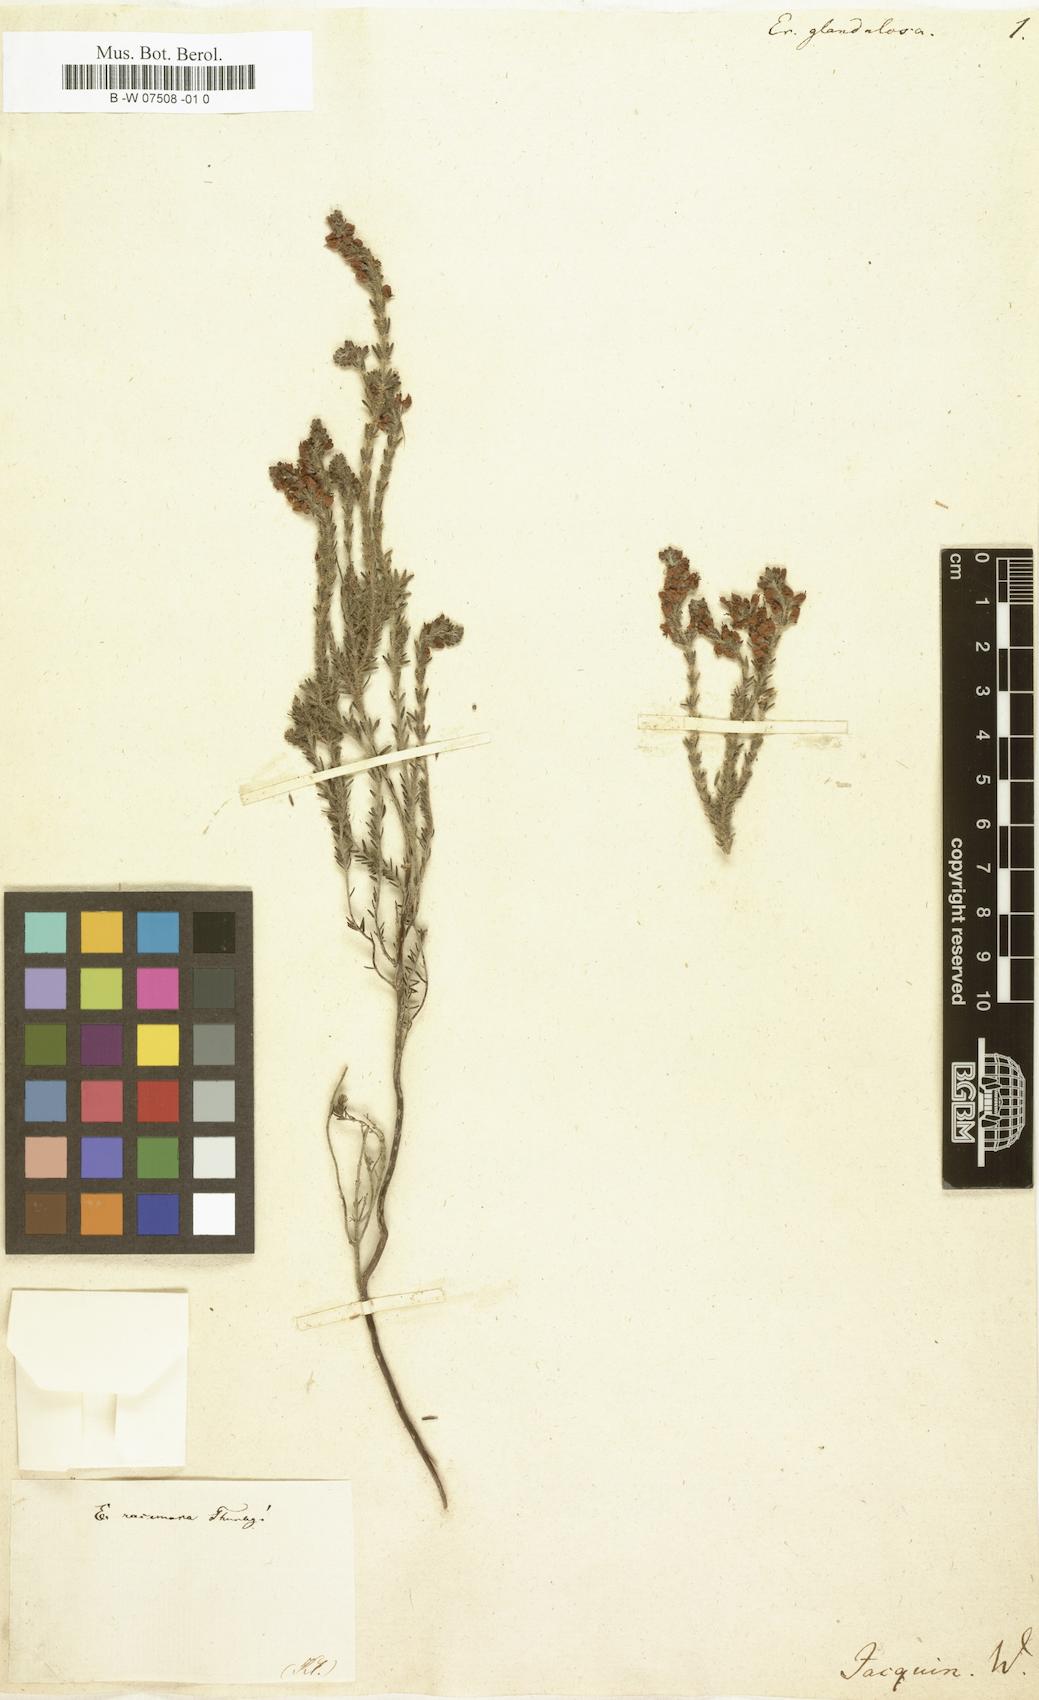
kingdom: Plantae
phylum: Tracheophyta
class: Magnoliopsida
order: Ericales
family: Ericaceae
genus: Erica
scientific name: Erica glandulosa
